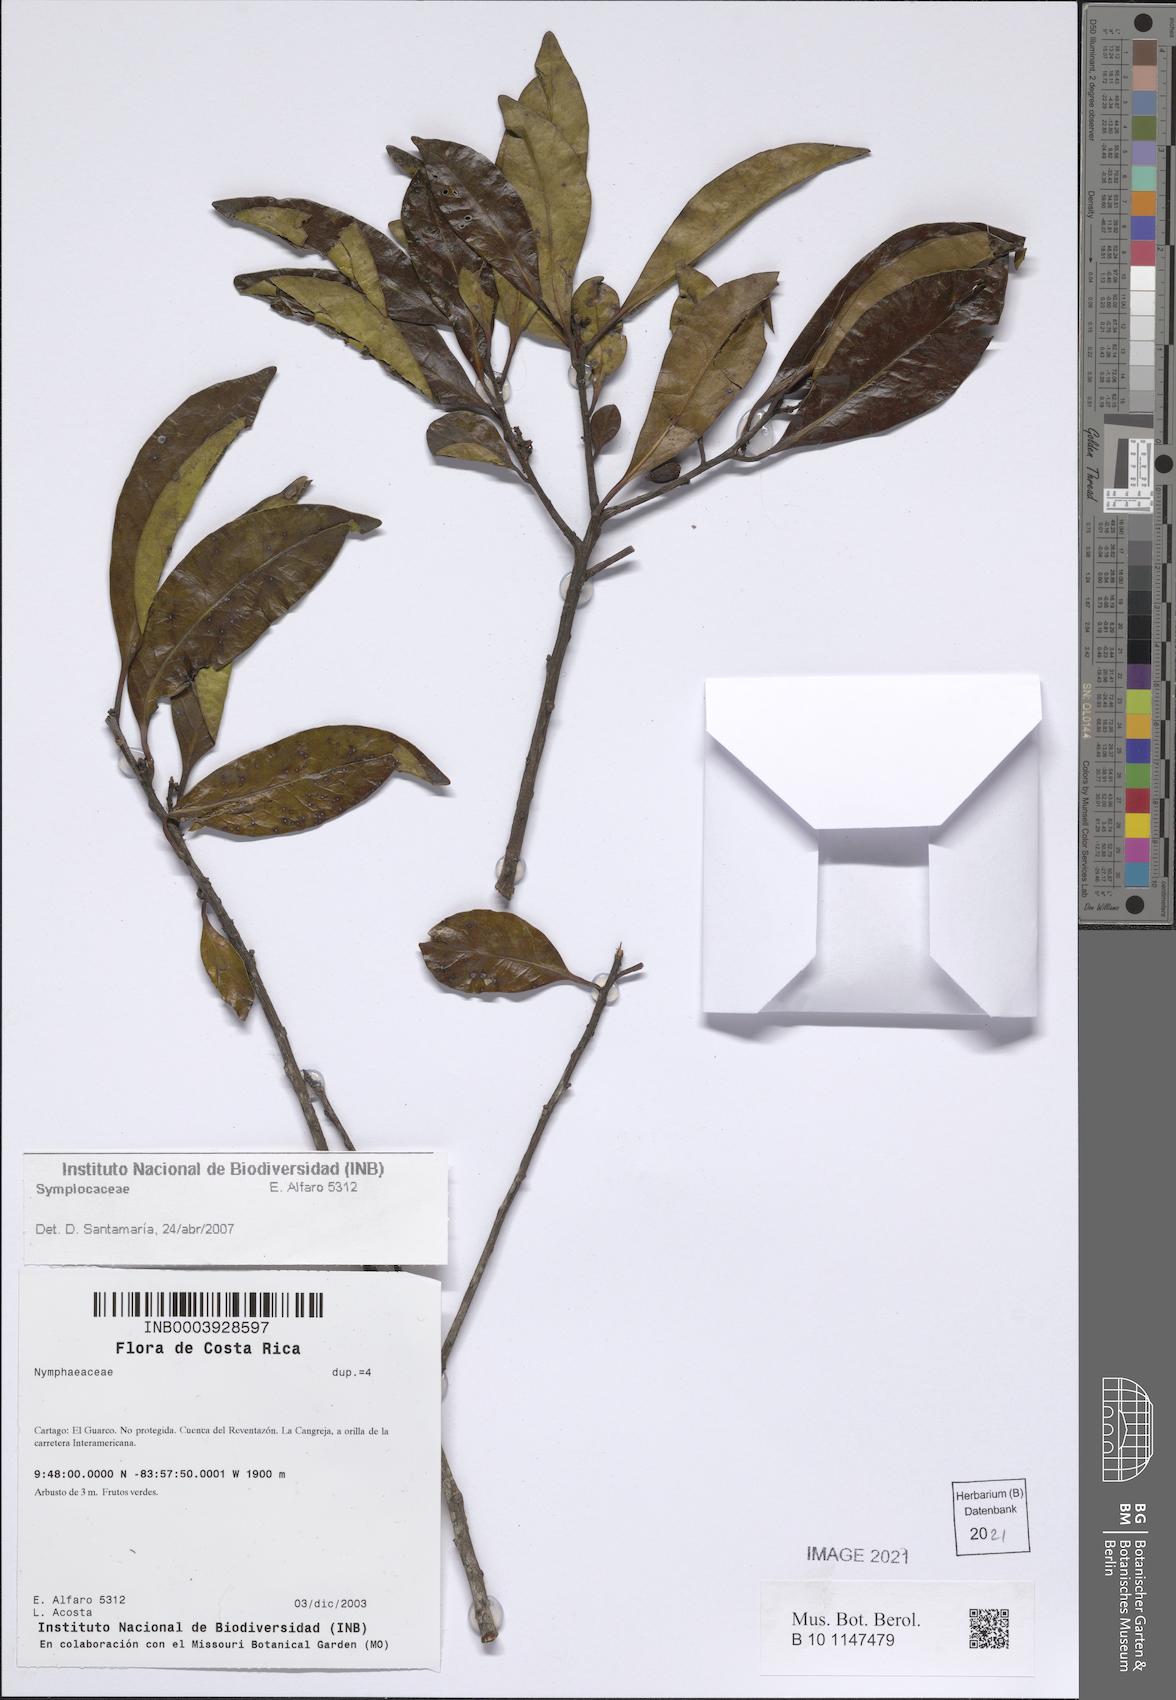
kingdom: Plantae
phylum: Tracheophyta
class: Magnoliopsida
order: Ericales
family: Symplocaceae
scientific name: Symplocaceae
